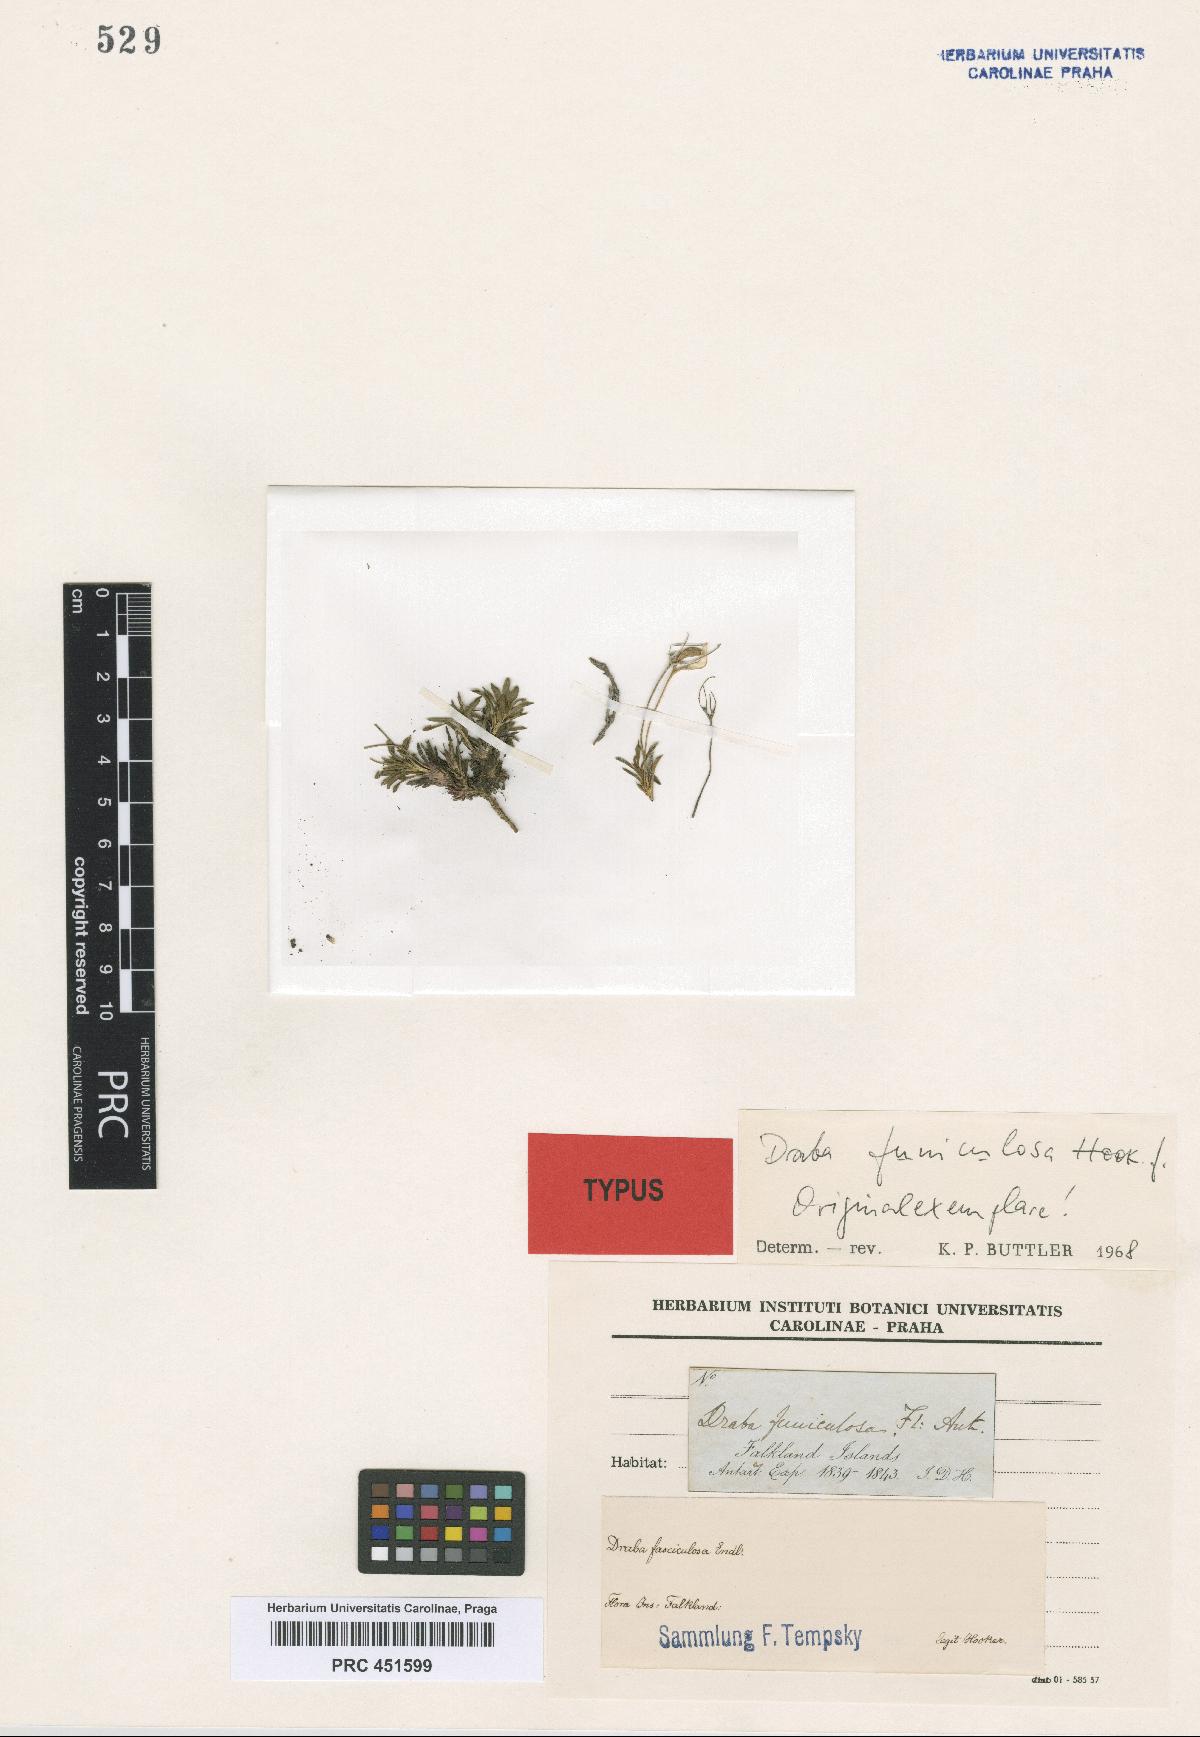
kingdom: Plantae
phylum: Tracheophyta
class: Magnoliopsida
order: Brassicales
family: Brassicaceae
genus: Draba
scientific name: Draba funiculosa
